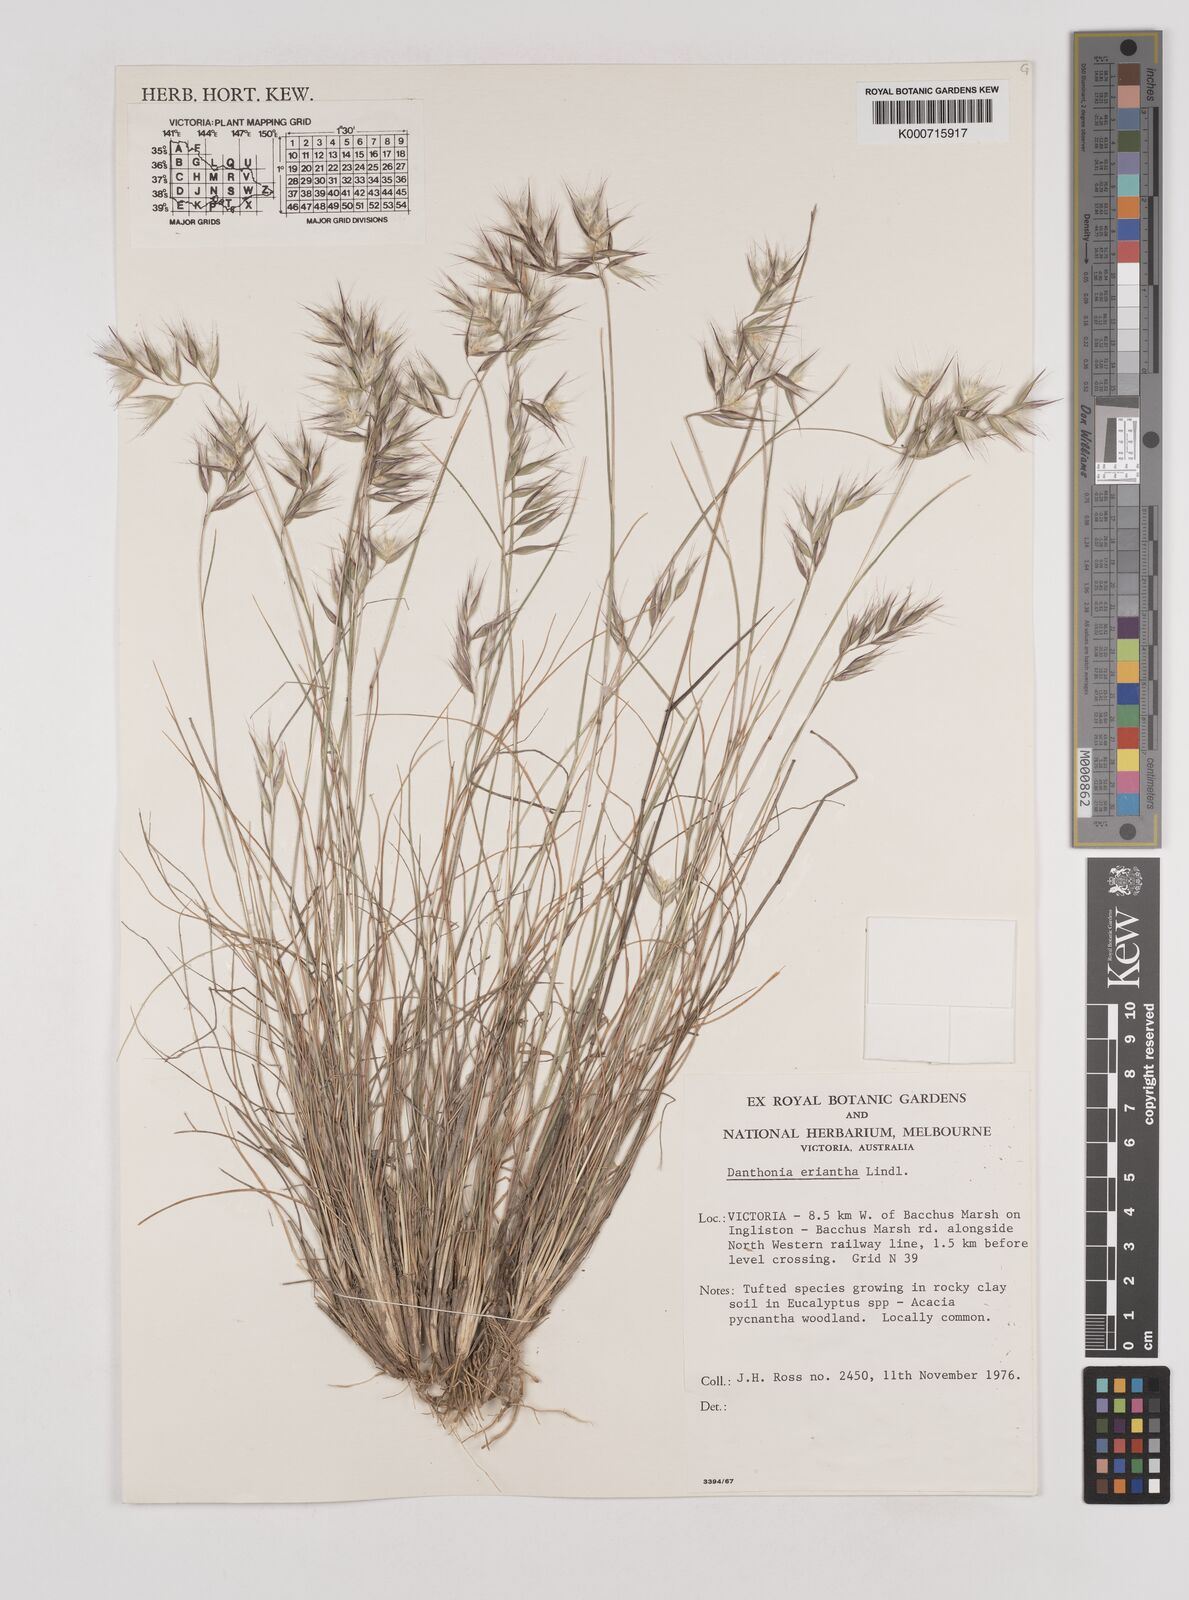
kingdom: Plantae
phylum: Tracheophyta
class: Liliopsida
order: Poales
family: Poaceae
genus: Rytidosperma
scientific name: Rytidosperma erianthum
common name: Hill wallaby grass
